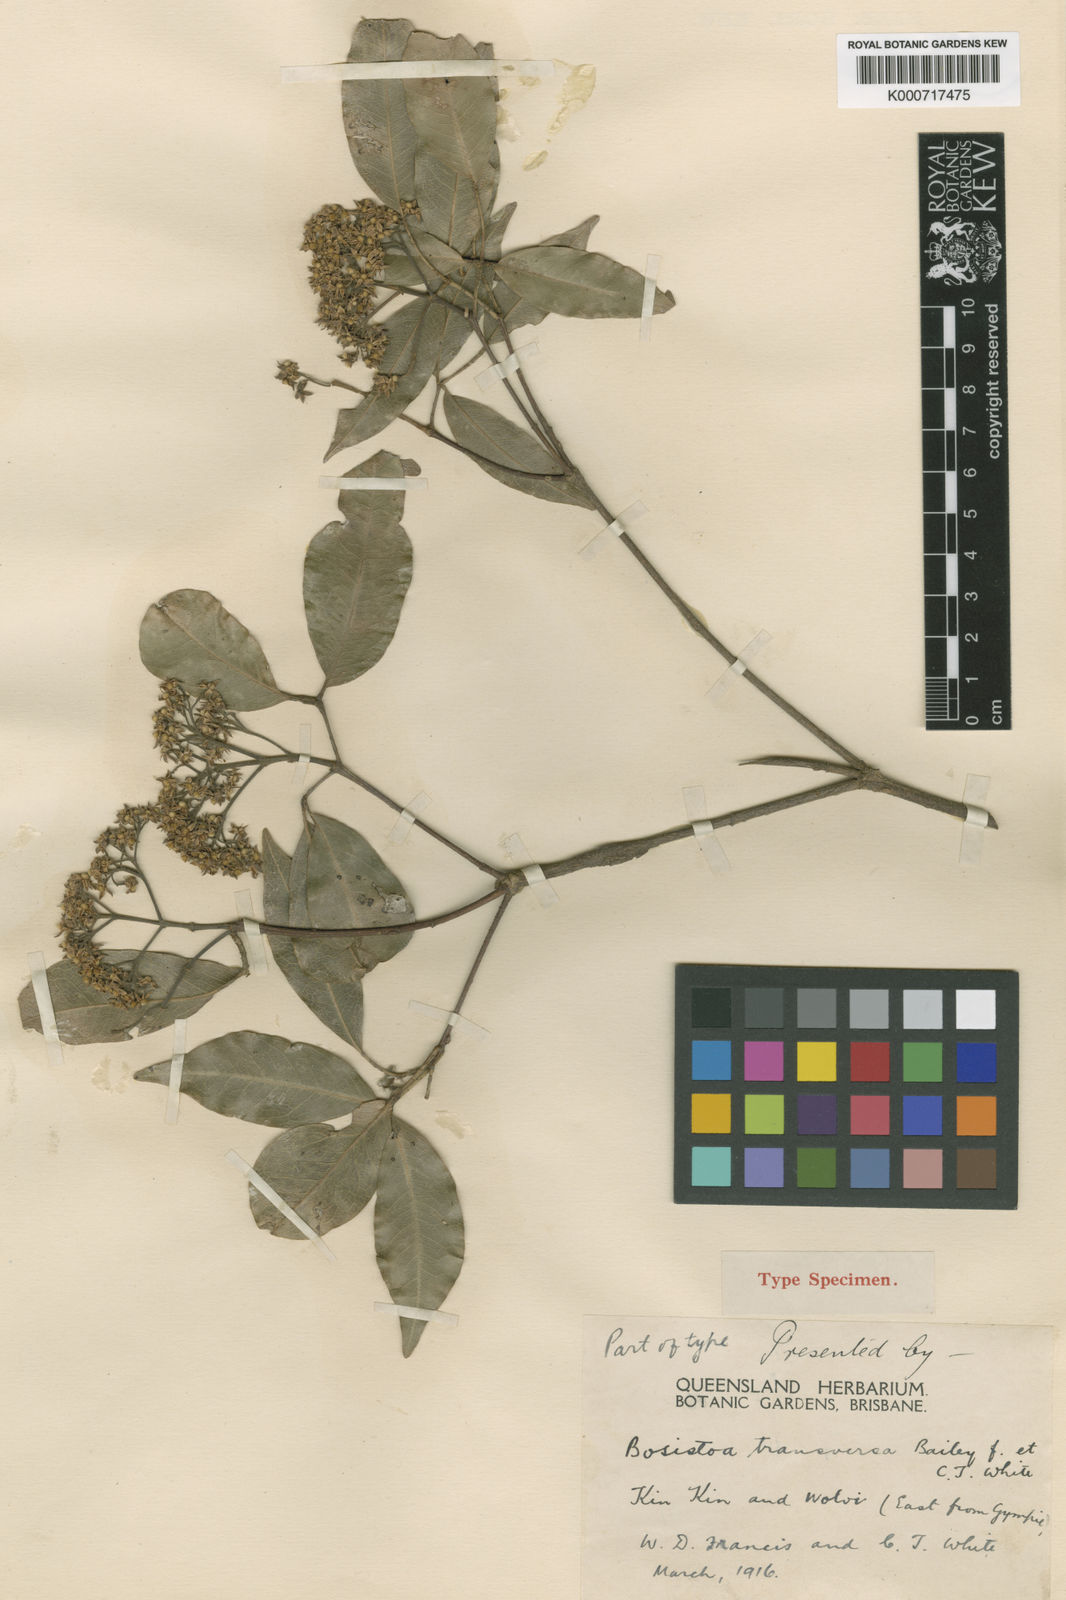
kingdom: Plantae
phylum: Tracheophyta
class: Magnoliopsida
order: Sapindales
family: Rutaceae
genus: Bosistoa
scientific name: Bosistoa transversa
